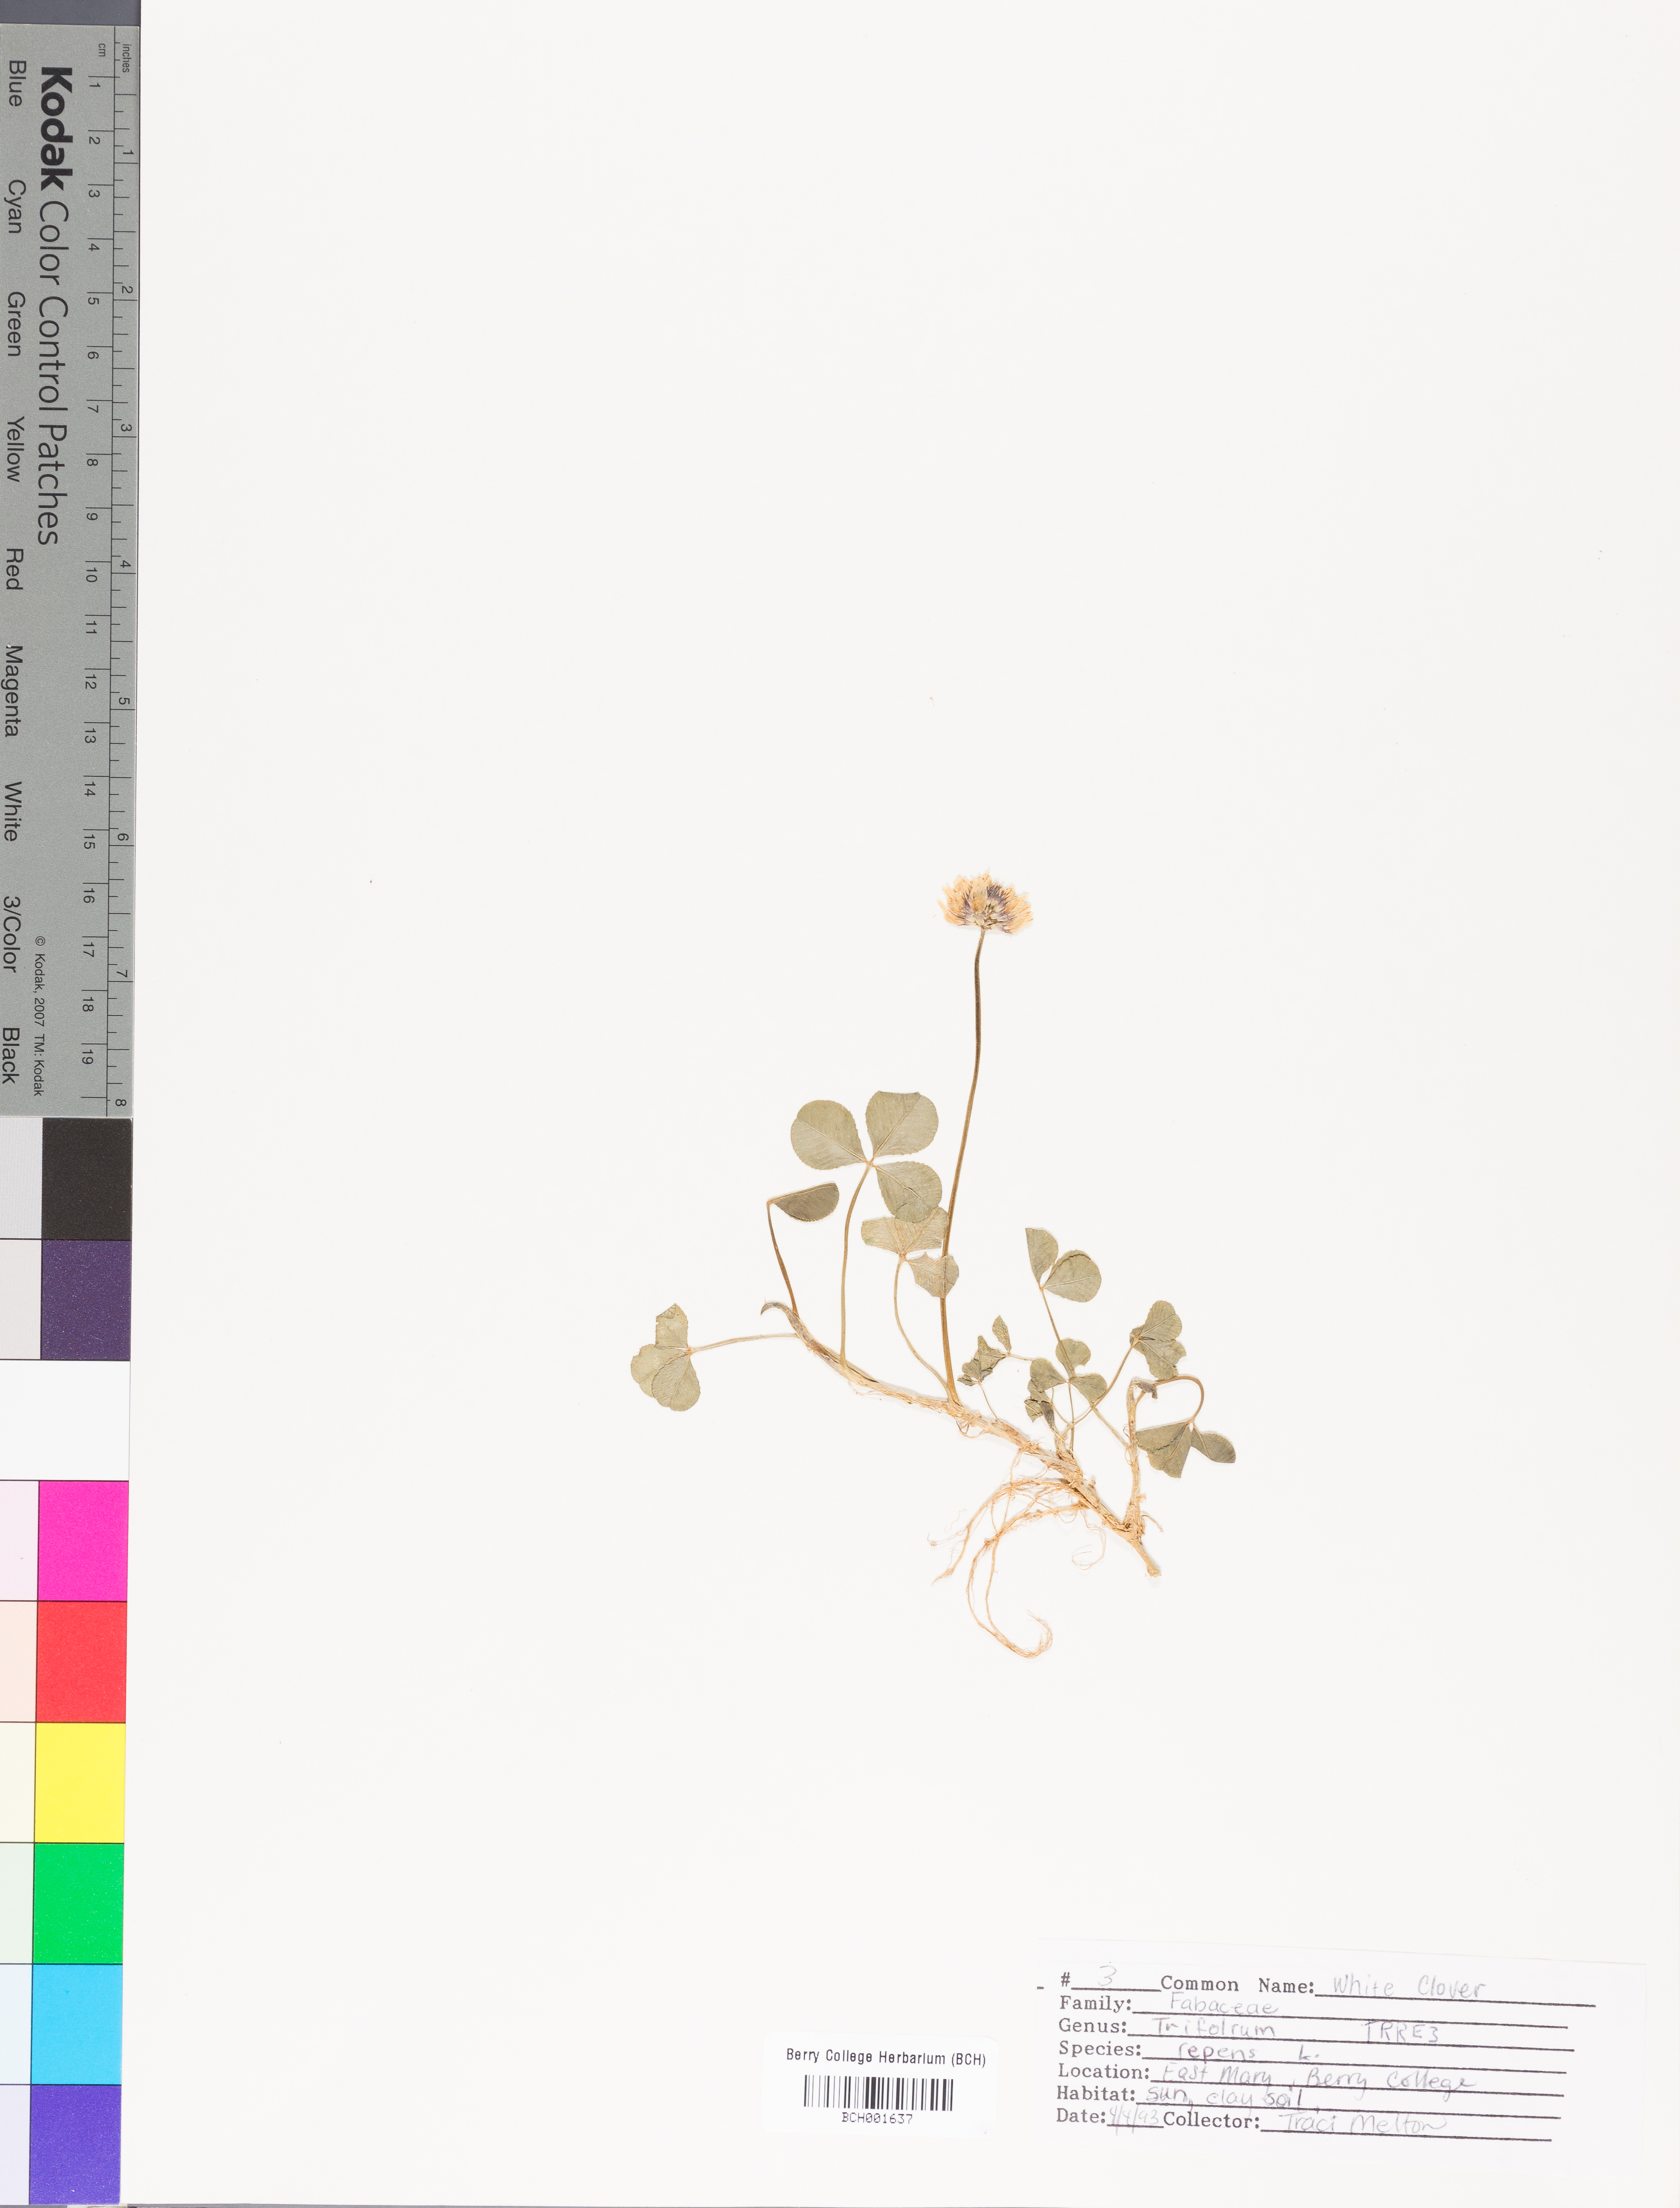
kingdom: Plantae
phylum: Tracheophyta
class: Magnoliopsida
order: Fabales
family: Fabaceae
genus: Trifolium
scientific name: Trifolium repens
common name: White clover
